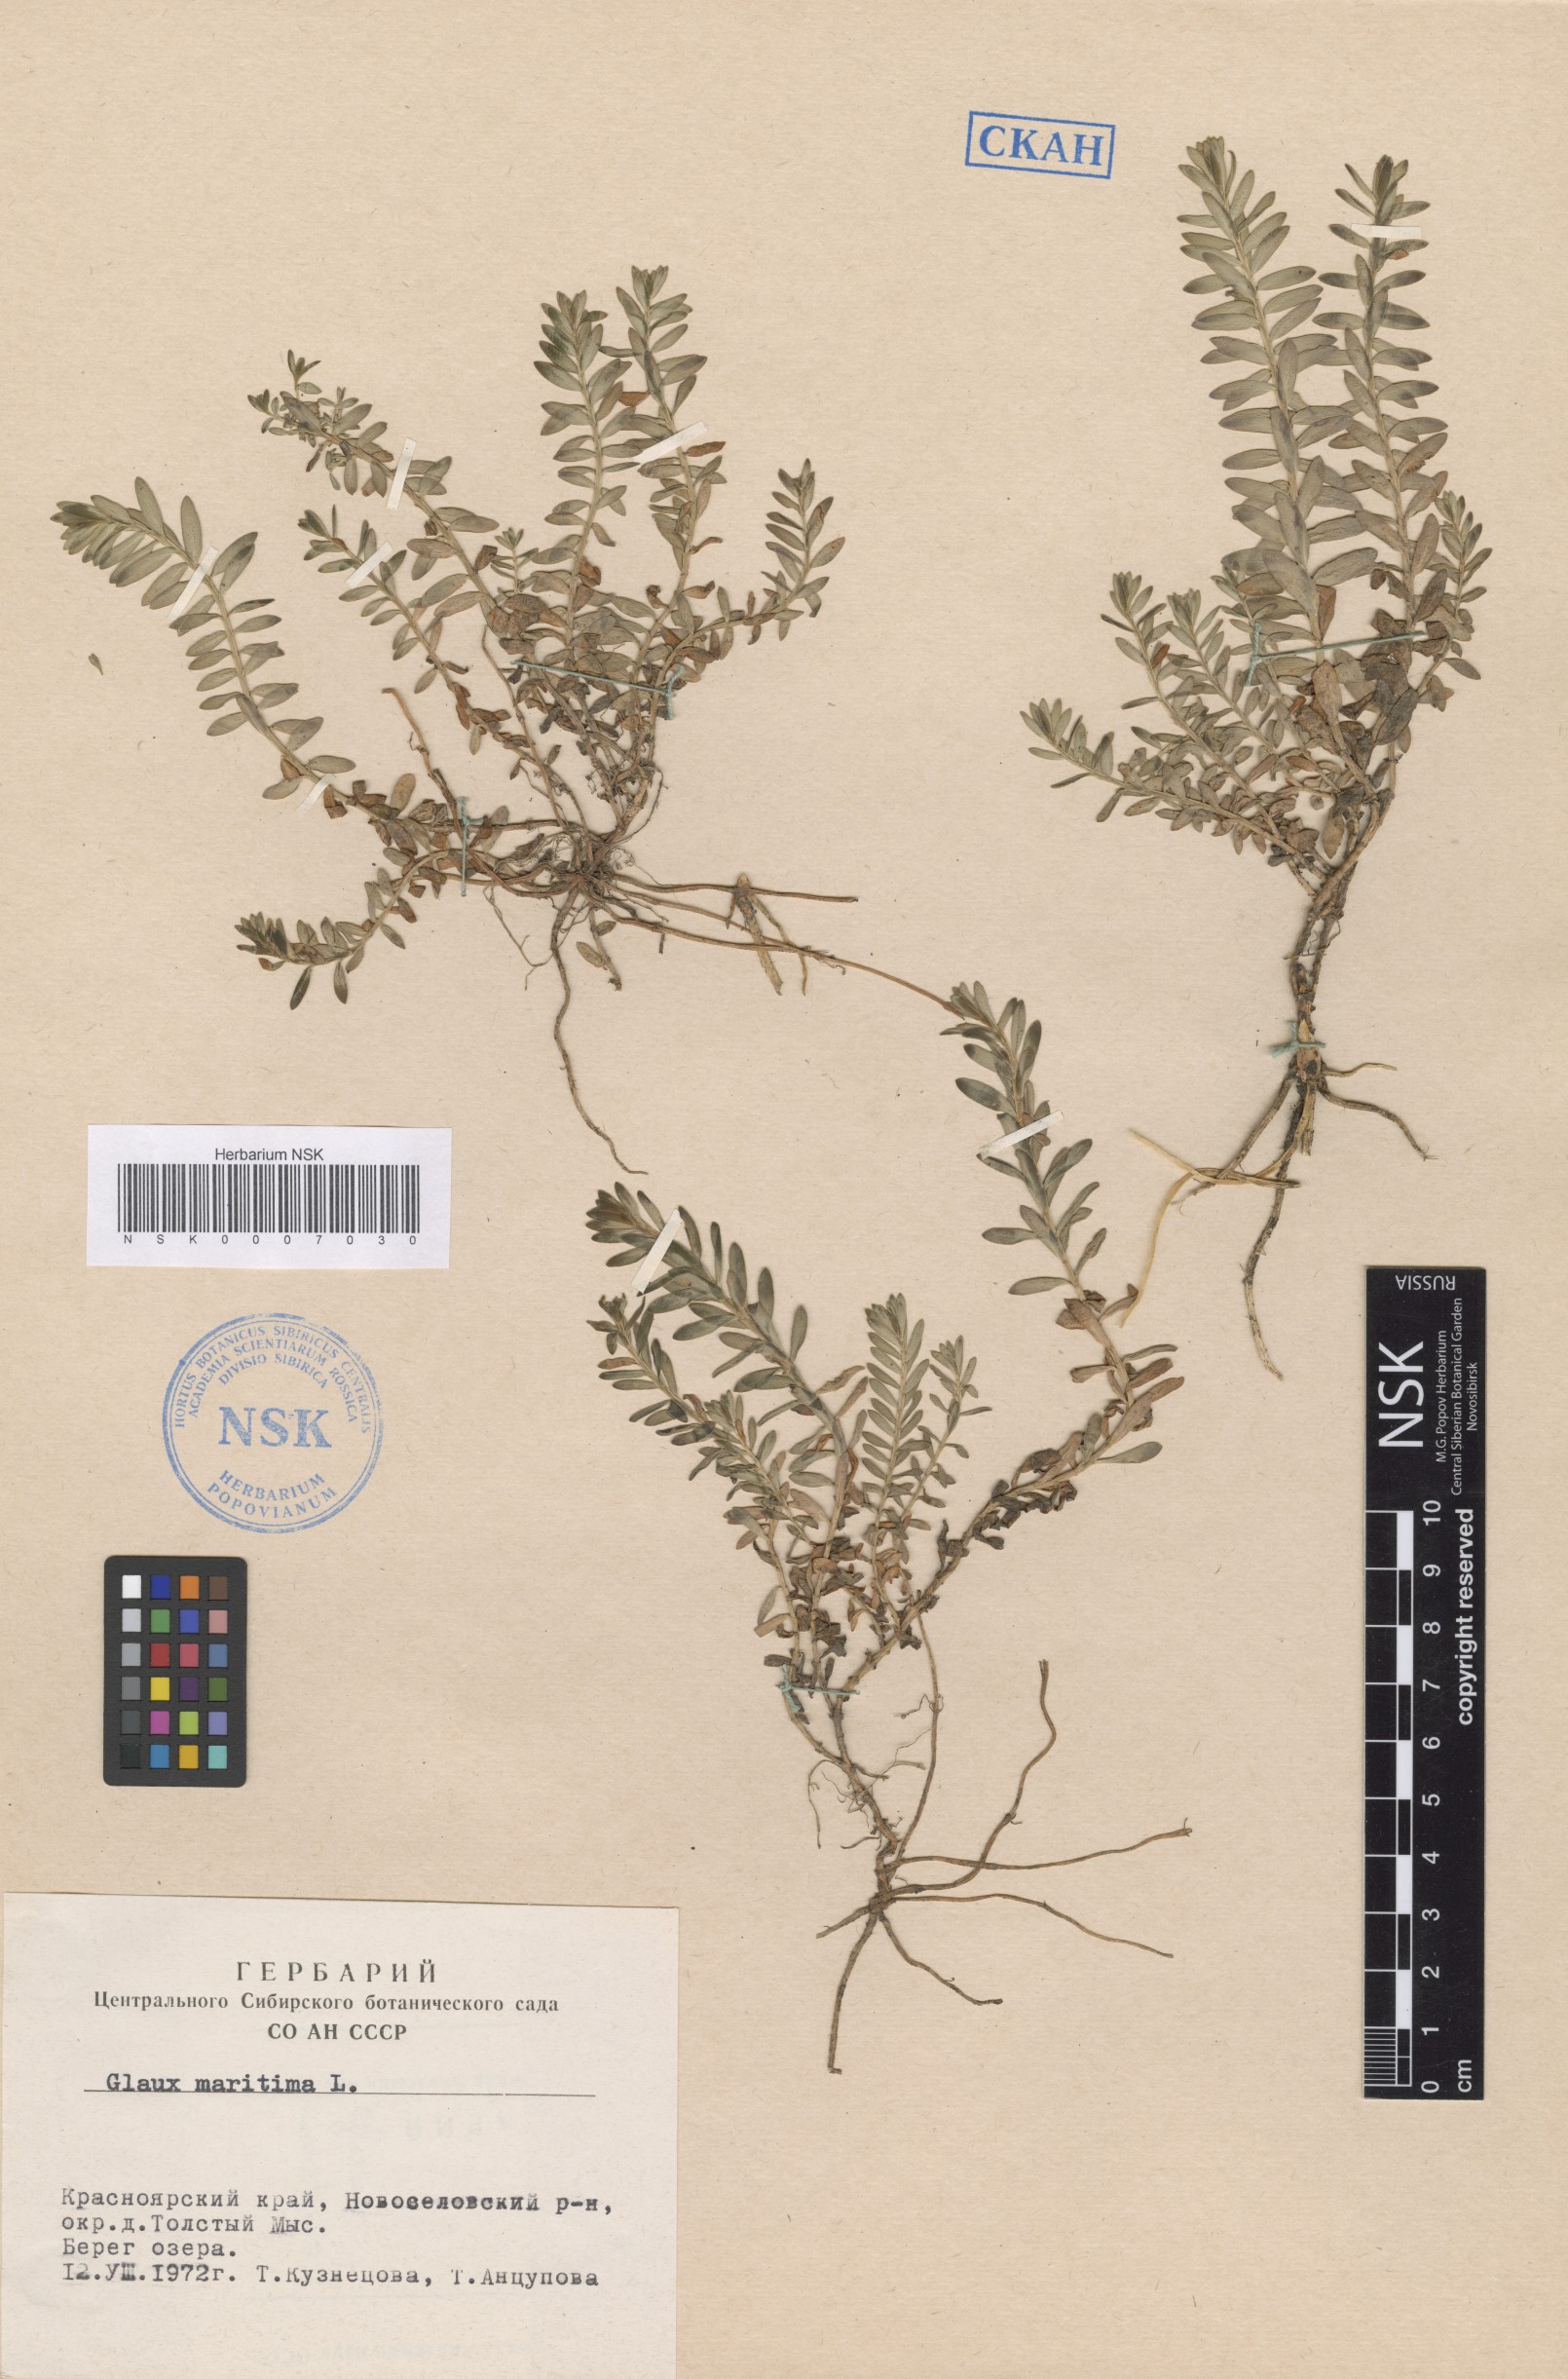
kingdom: Plantae
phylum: Tracheophyta
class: Magnoliopsida
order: Ericales
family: Primulaceae
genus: Lysimachia
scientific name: Lysimachia maritima
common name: Sea milkwort
